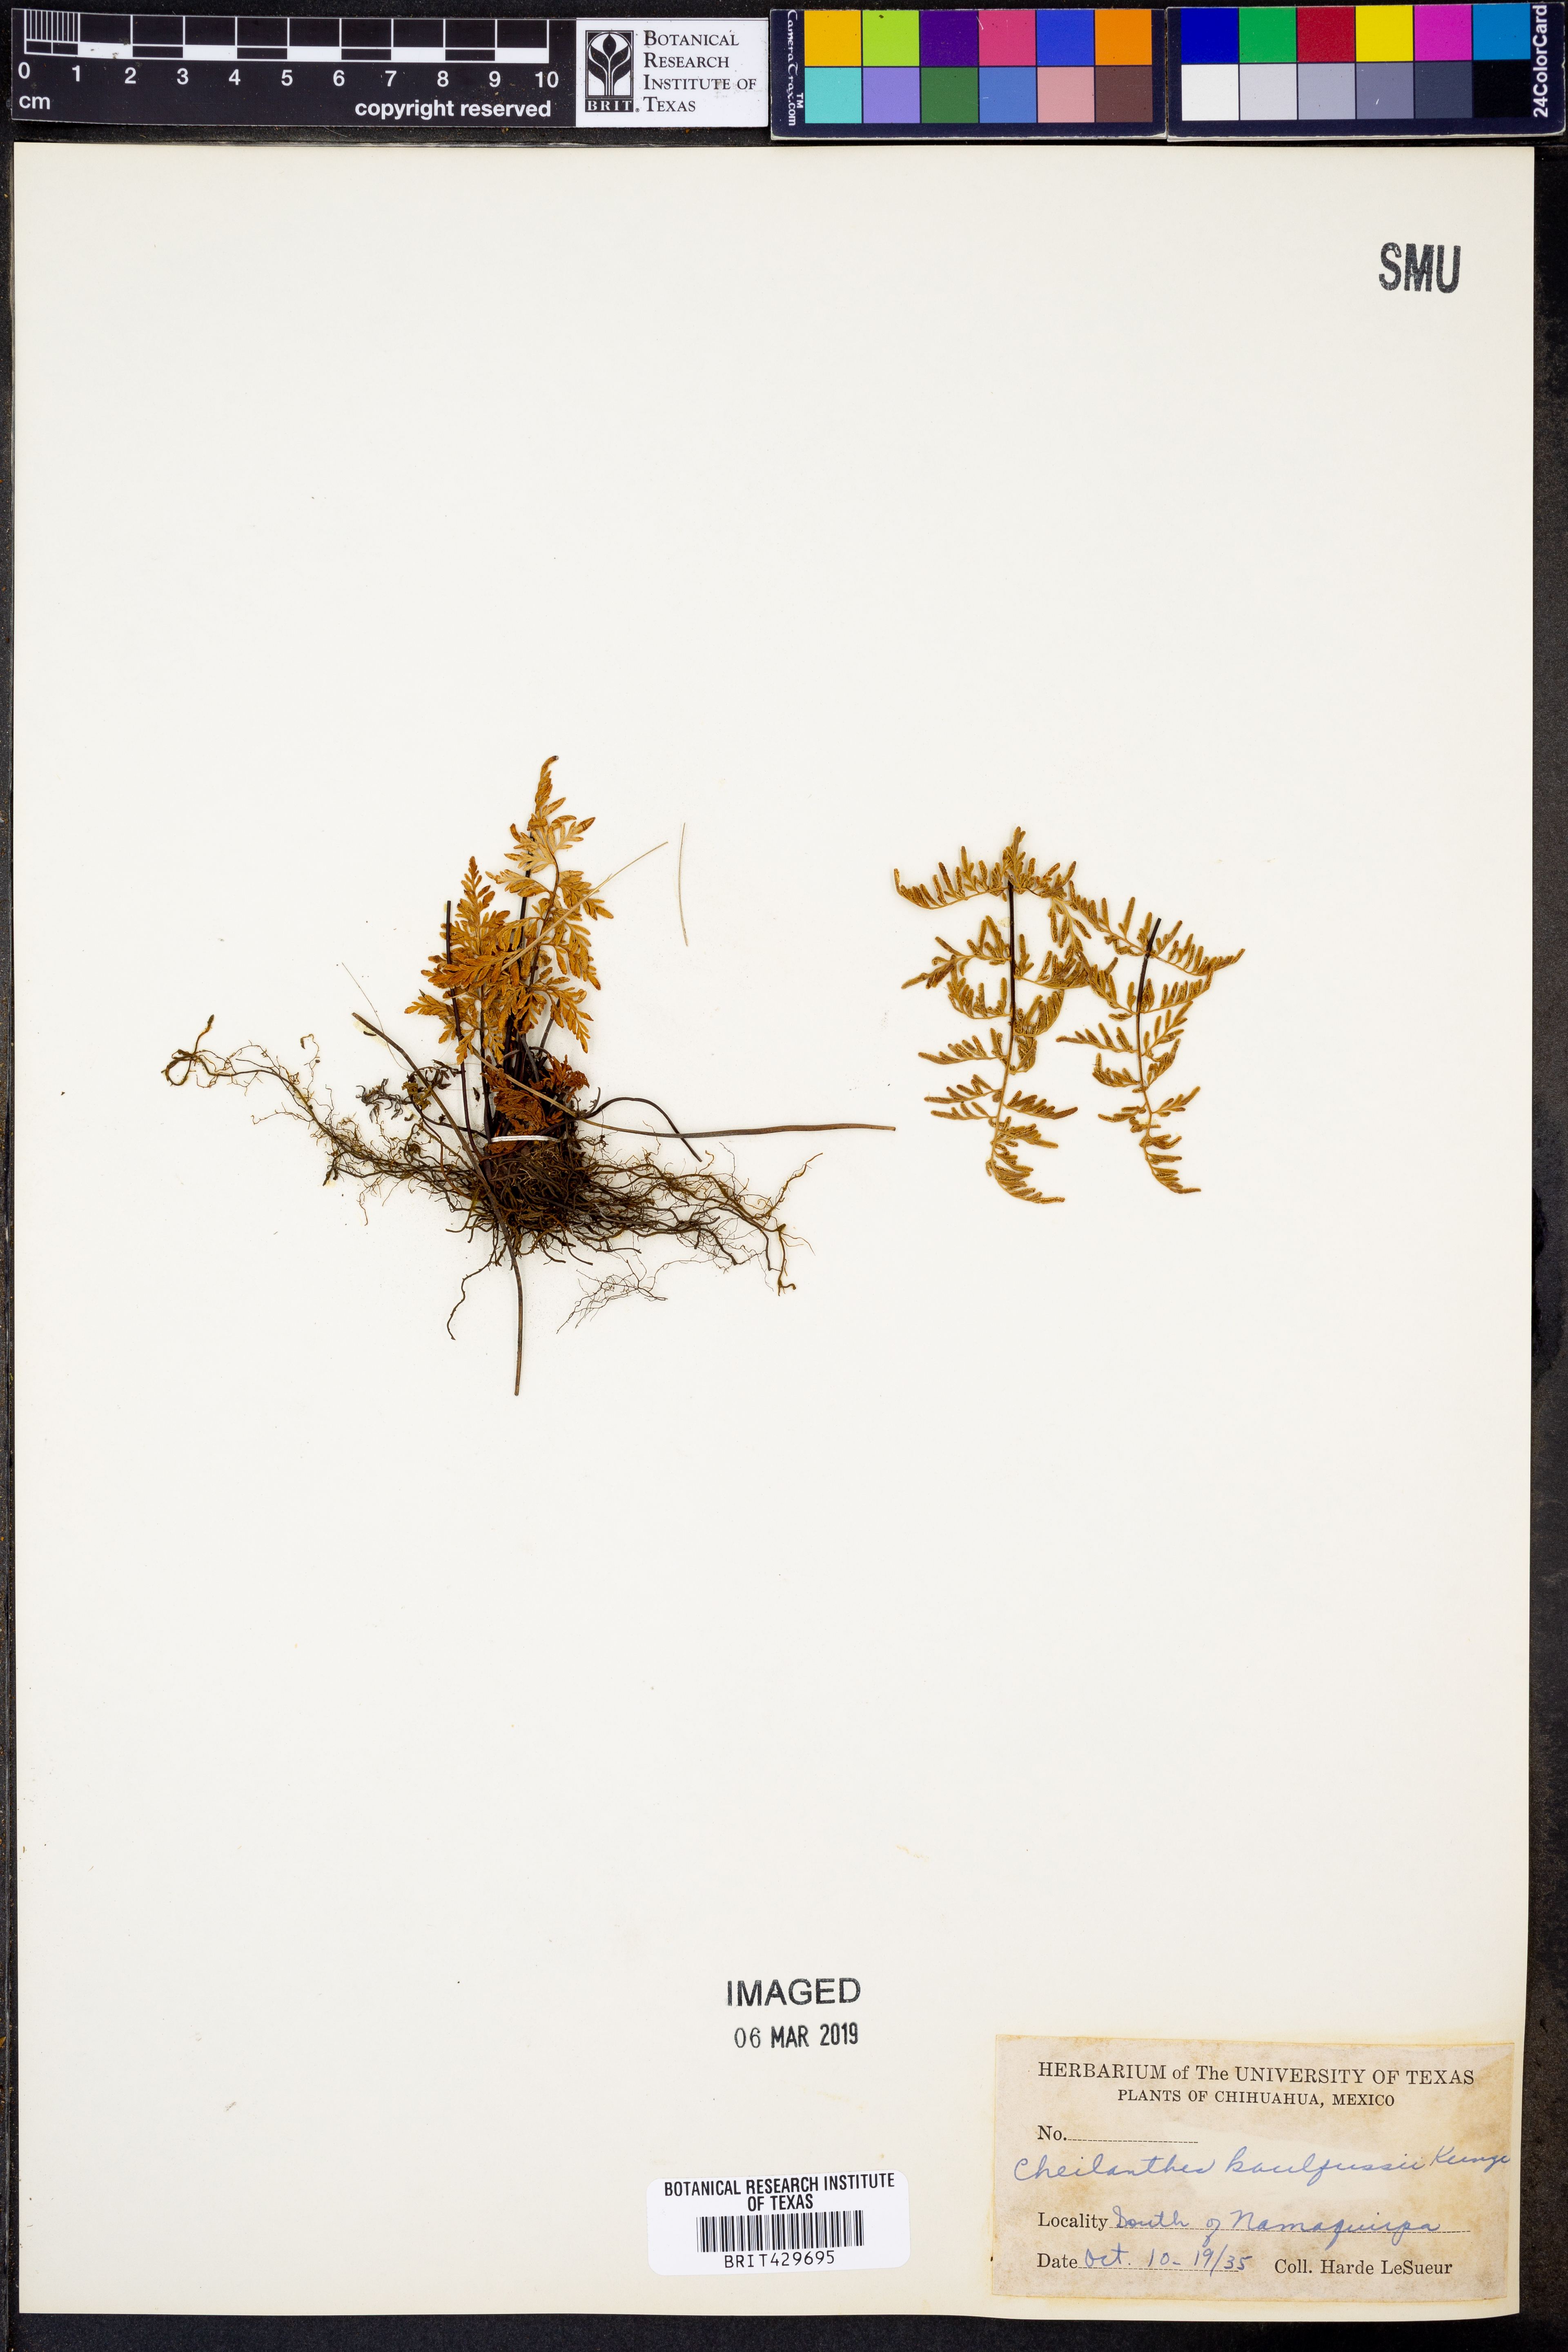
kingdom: Plantae
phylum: Tracheophyta
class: Polypodiopsida
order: Polypodiales
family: Pteridaceae
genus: Gaga
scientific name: Gaga kaulfussii
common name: Glandular lip fern
